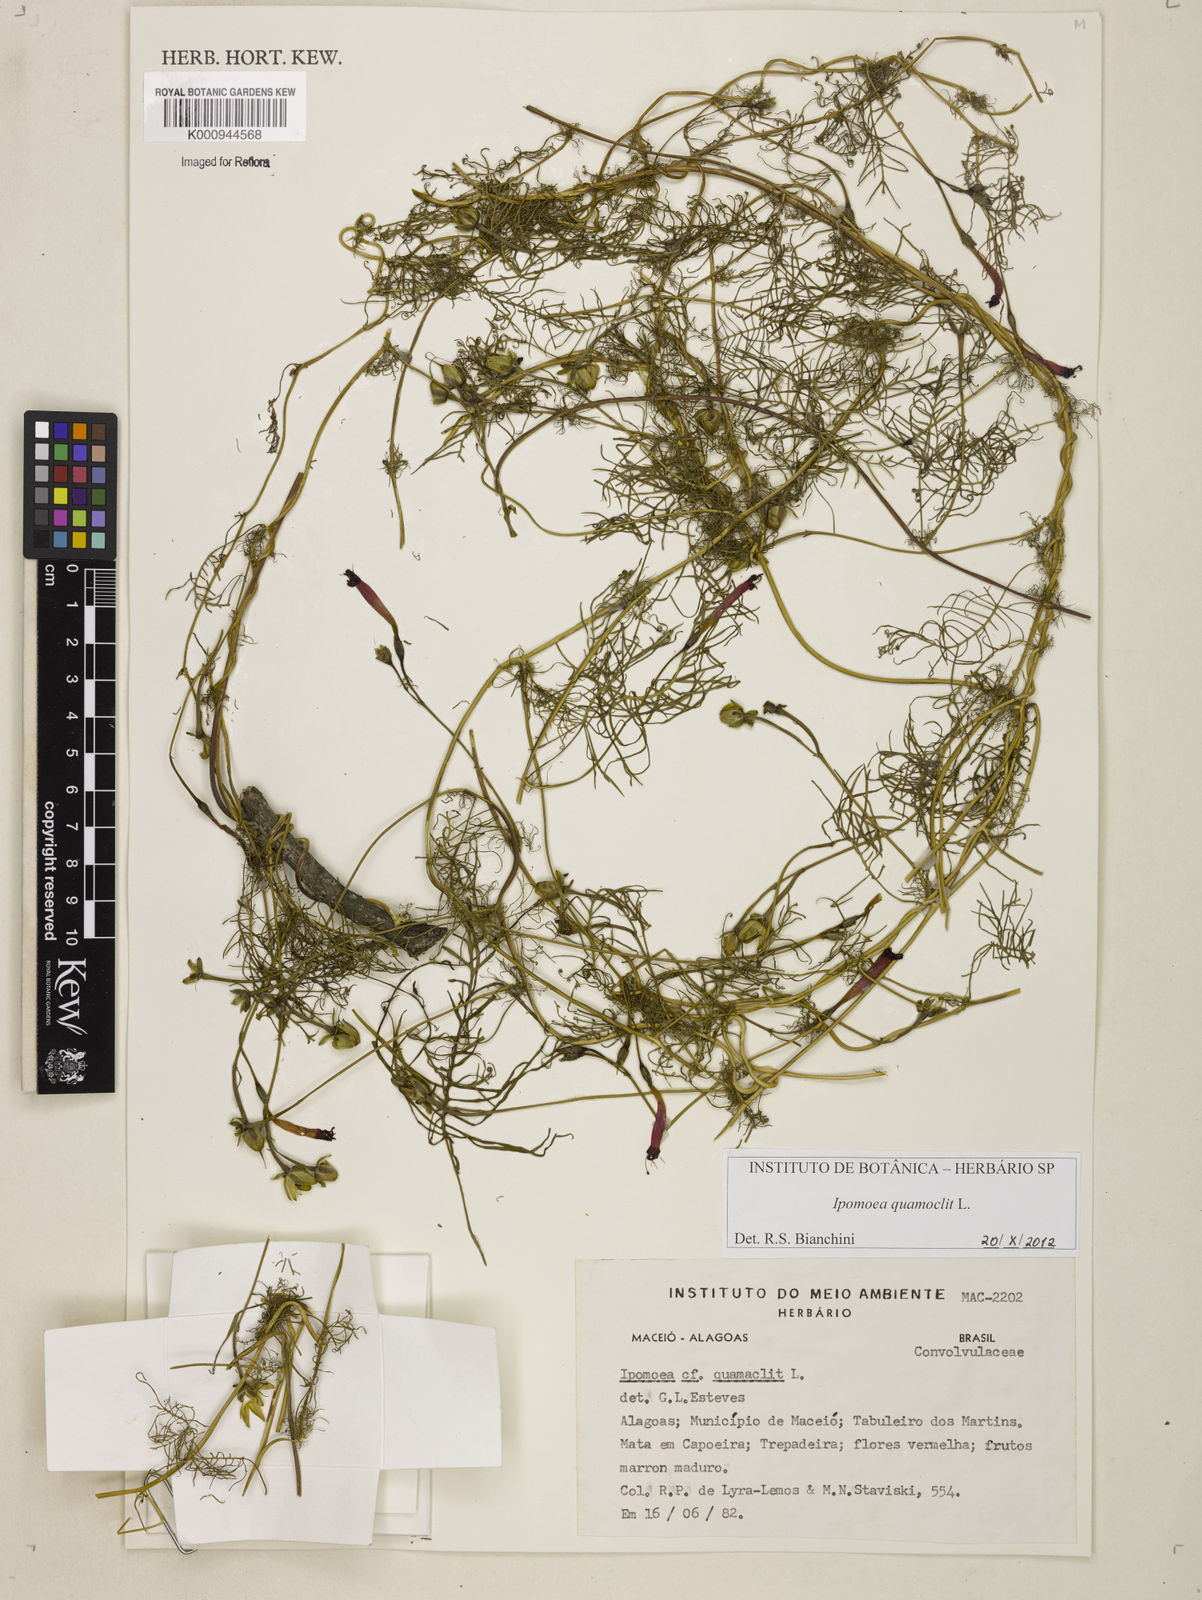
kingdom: Plantae
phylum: Tracheophyta
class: Magnoliopsida
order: Solanales
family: Convolvulaceae
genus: Ipomoea
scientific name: Ipomoea quamoclit
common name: Cypress vine
